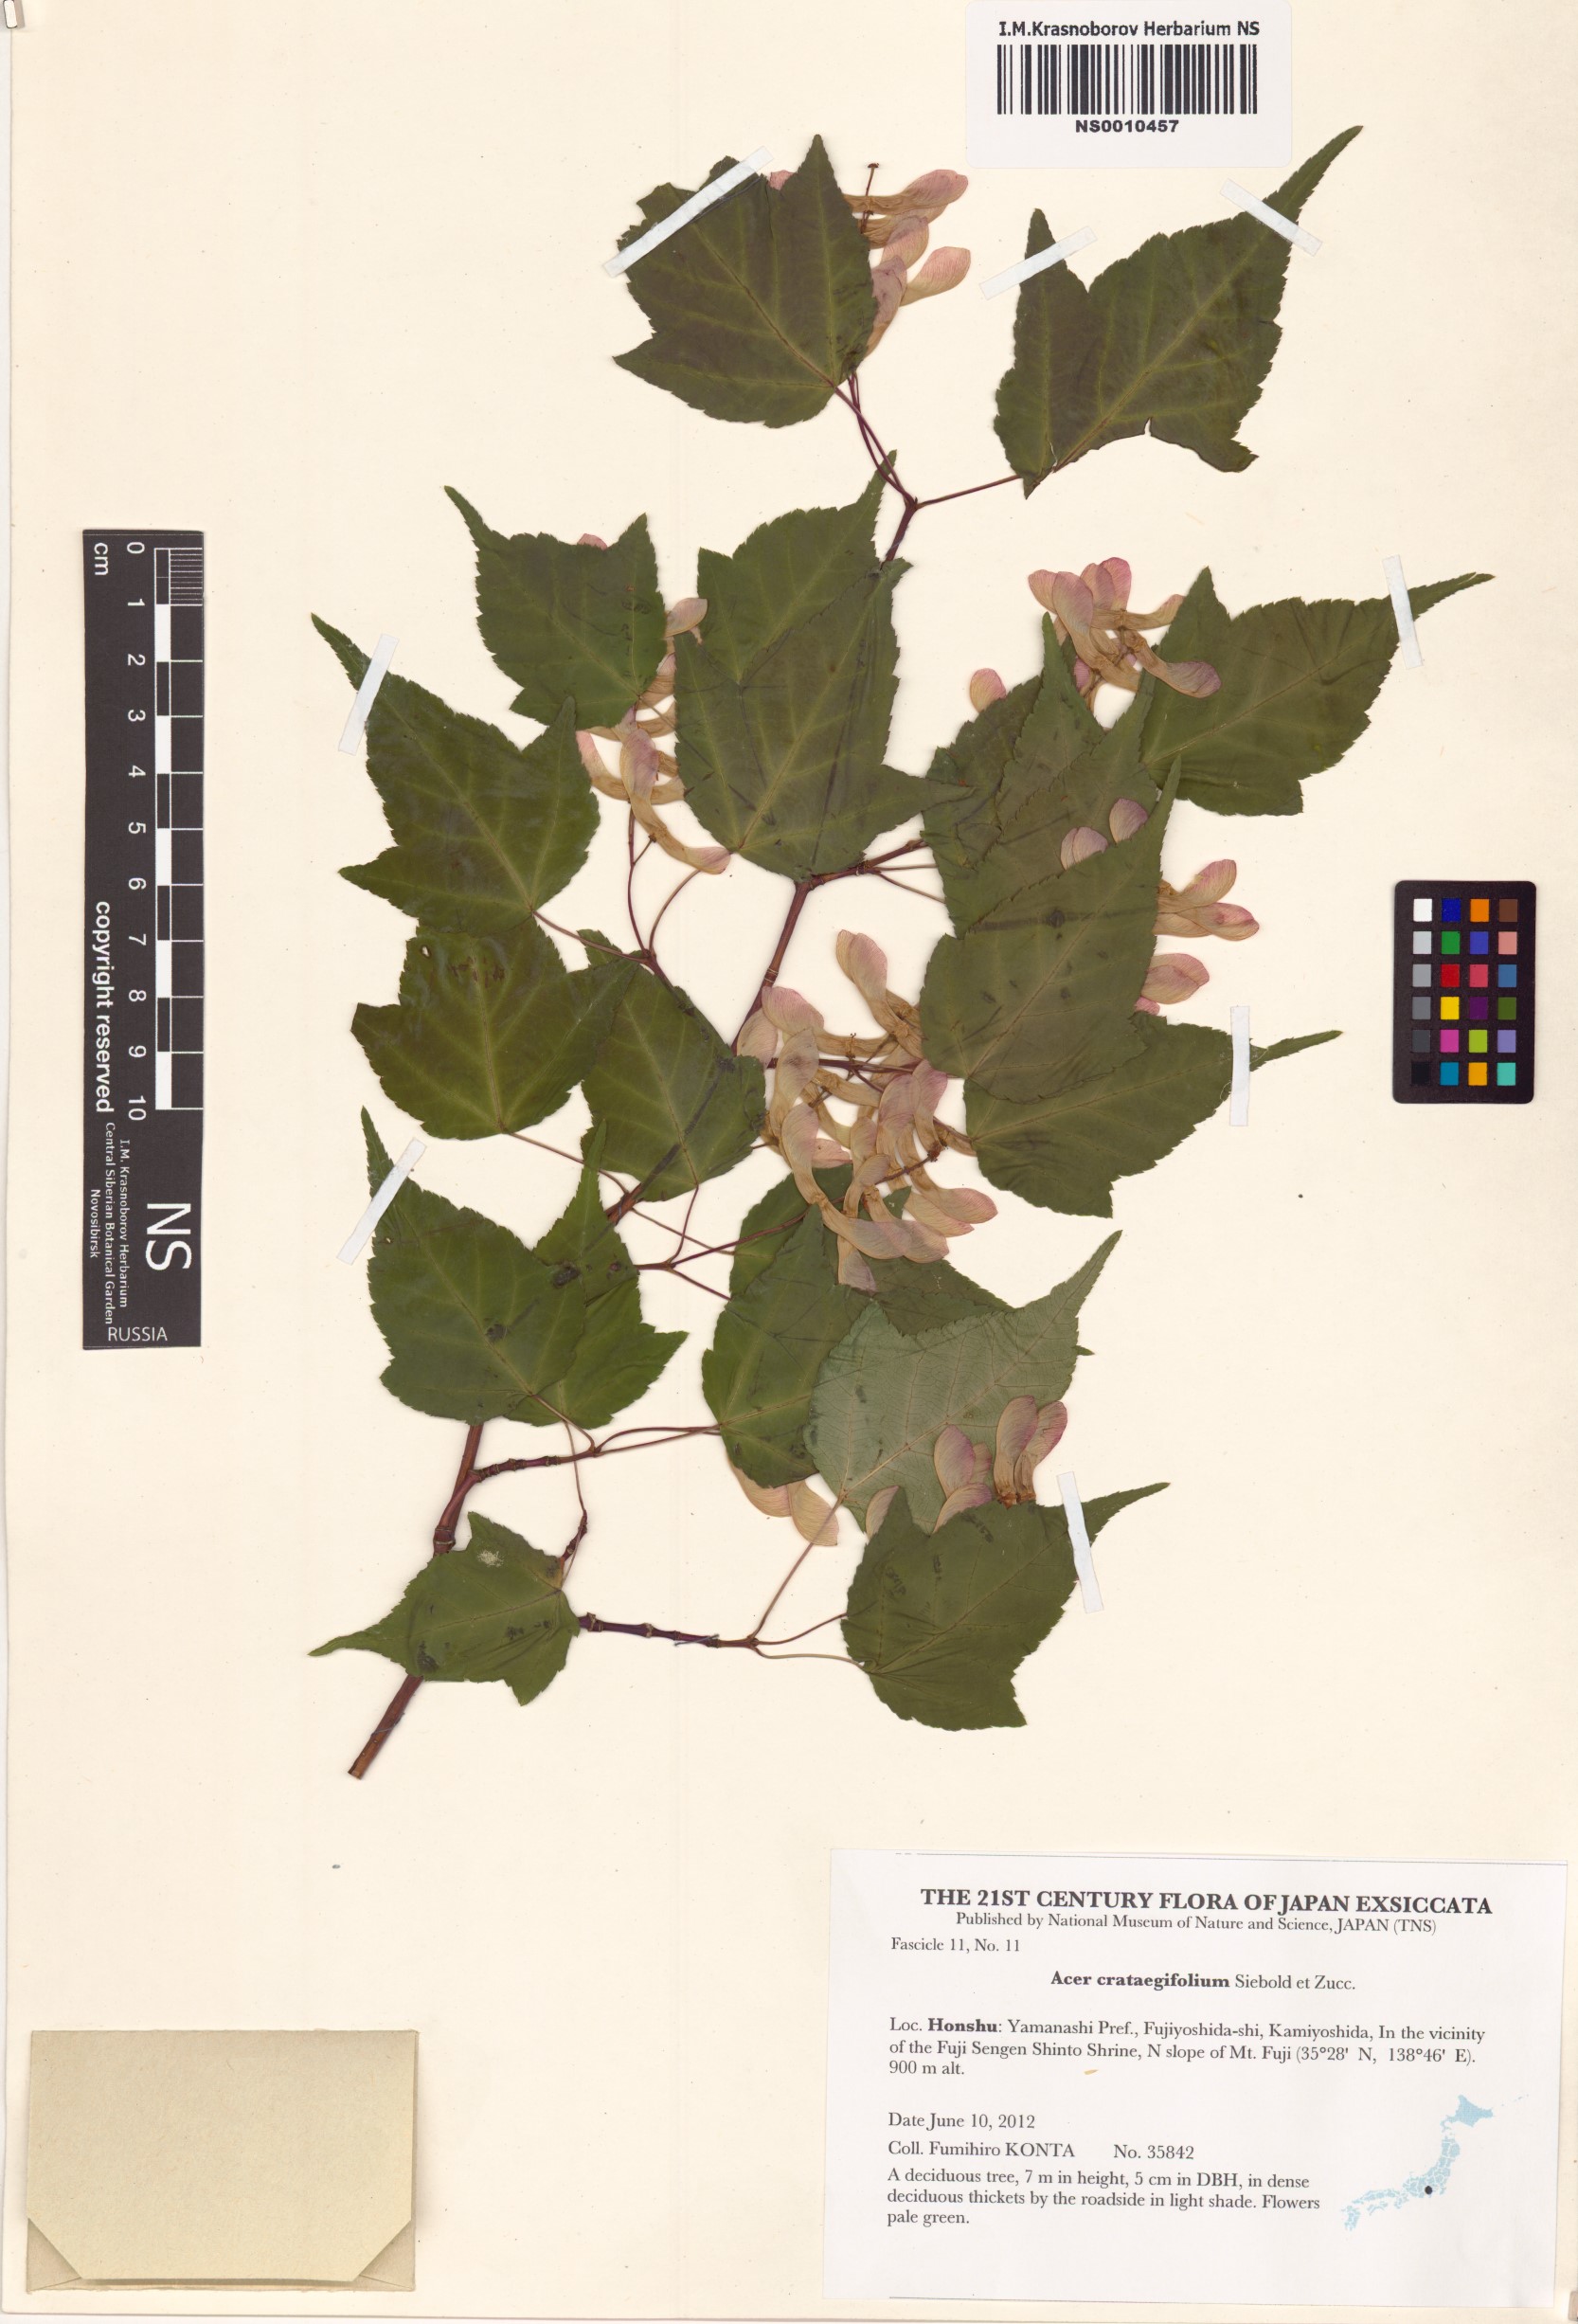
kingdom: Plantae
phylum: Tracheophyta
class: Magnoliopsida
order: Sapindales
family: Sapindaceae
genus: Acer
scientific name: Acer crataegifolium
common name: Hawthorn-leaf maple
